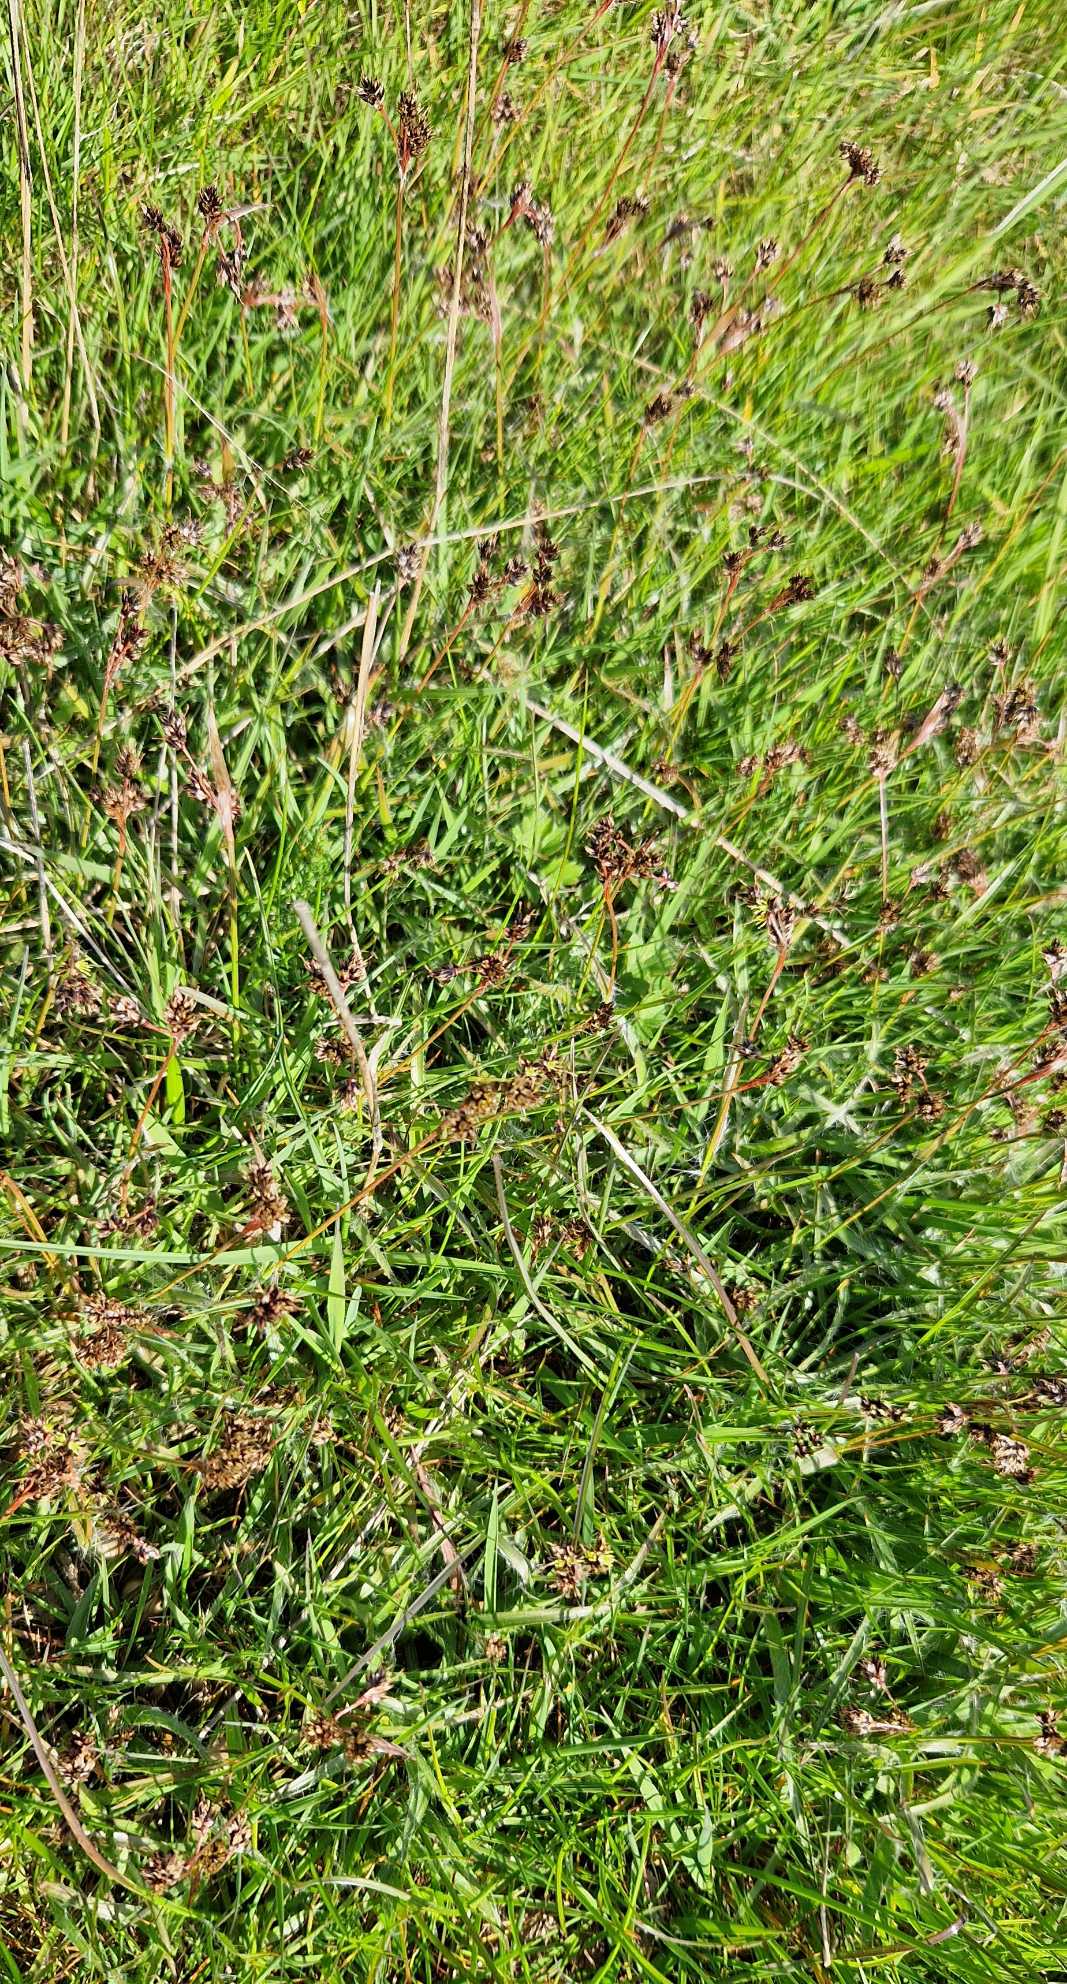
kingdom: Plantae
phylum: Tracheophyta
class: Liliopsida
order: Poales
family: Juncaceae
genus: Luzula
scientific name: Luzula campestris
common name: Mark-frytle
